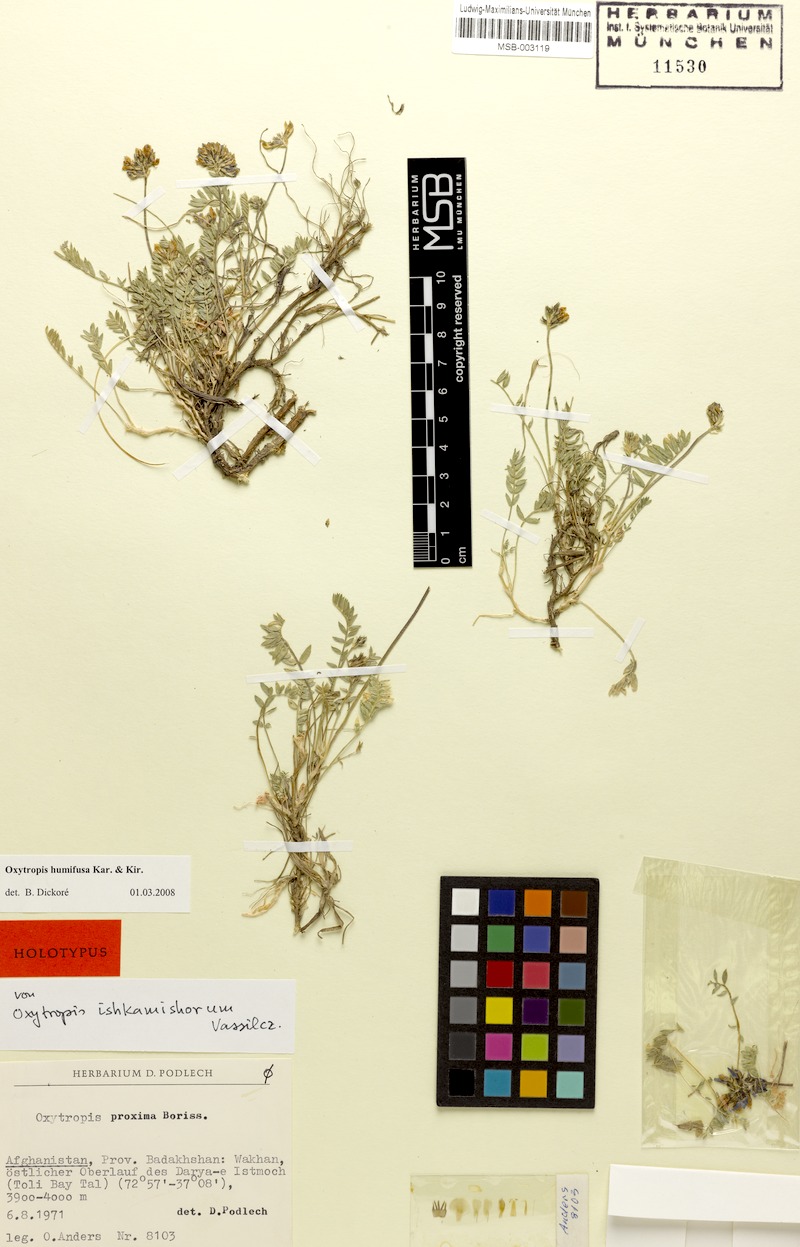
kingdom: Plantae
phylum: Tracheophyta
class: Magnoliopsida
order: Fabales
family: Fabaceae
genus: Oxytropis
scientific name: Oxytropis humifusa
